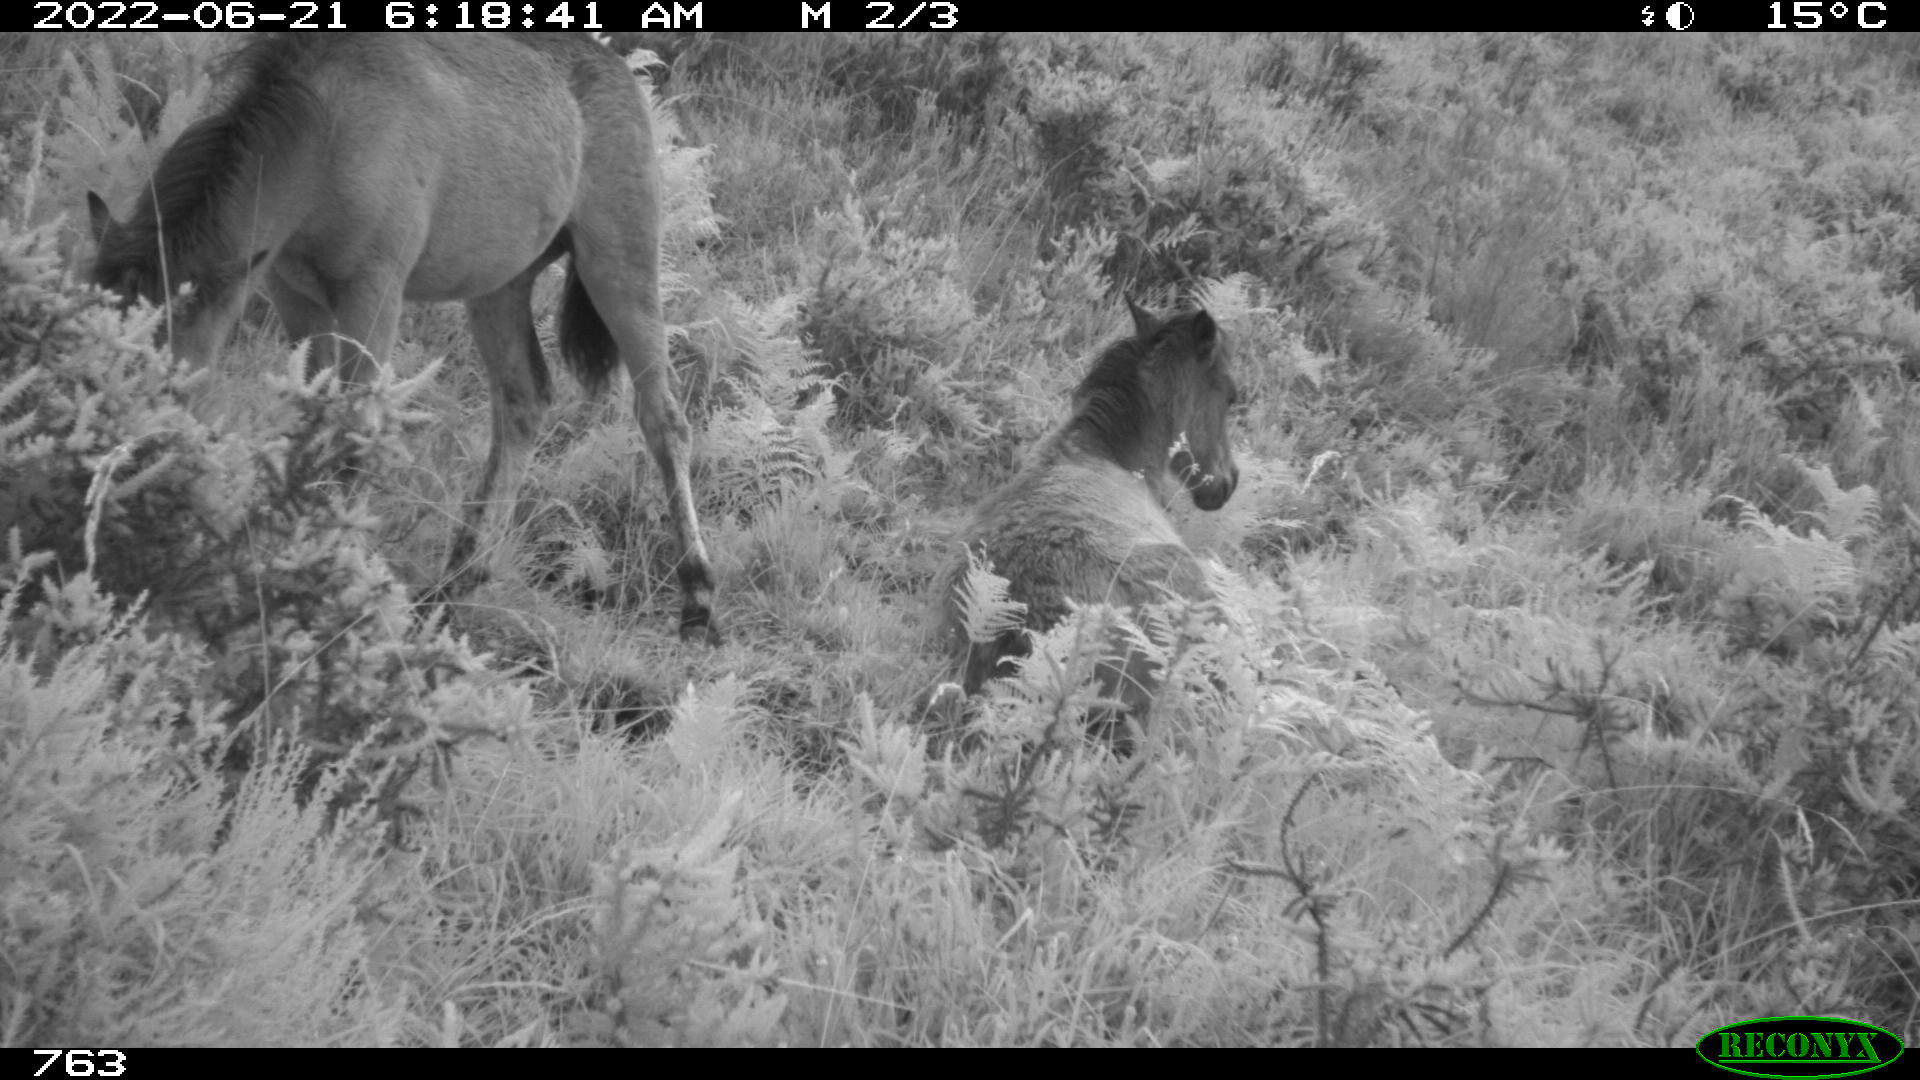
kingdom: Animalia
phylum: Chordata
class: Mammalia
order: Perissodactyla
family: Equidae
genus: Equus
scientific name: Equus caballus
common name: Horse
